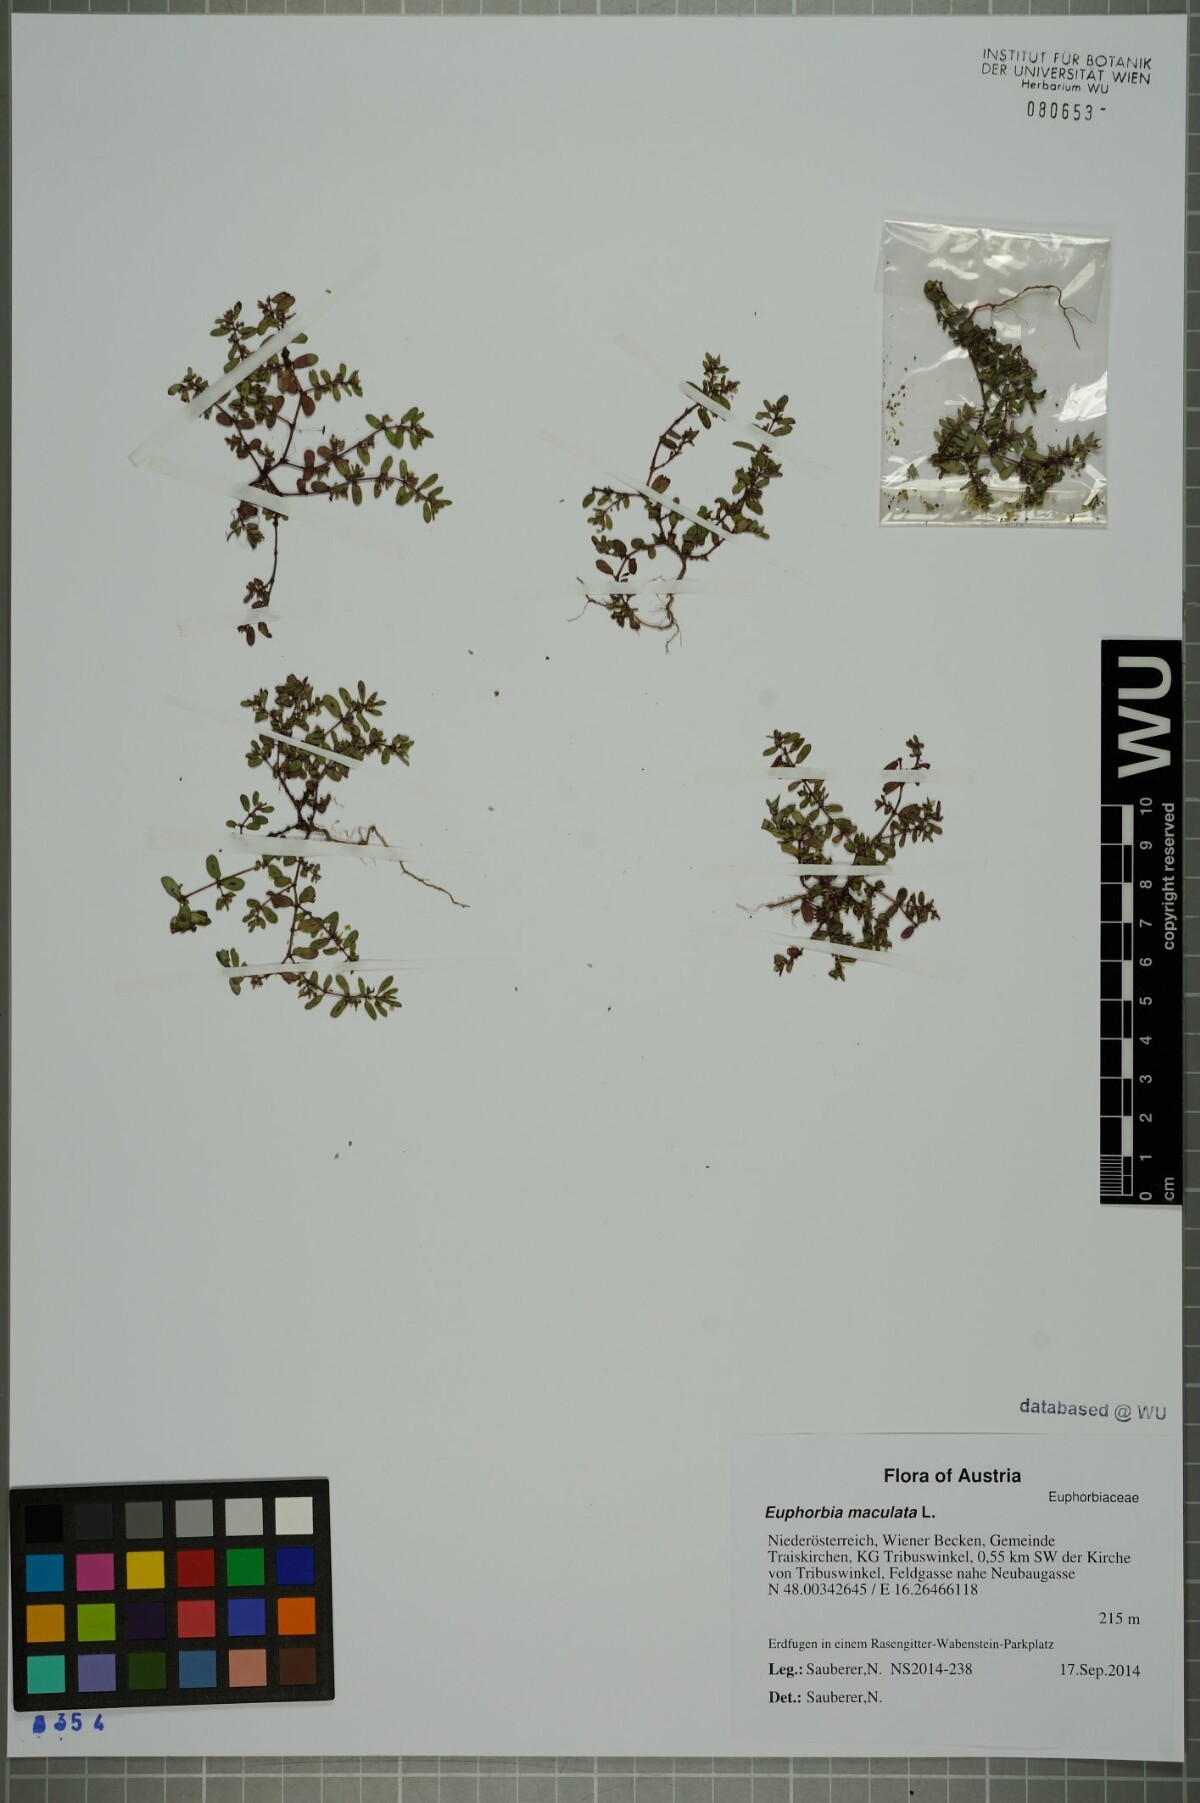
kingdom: Plantae
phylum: Tracheophyta
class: Magnoliopsida
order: Malpighiales
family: Euphorbiaceae
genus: Euphorbia
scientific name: Euphorbia maculata
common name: Spotted spurge
